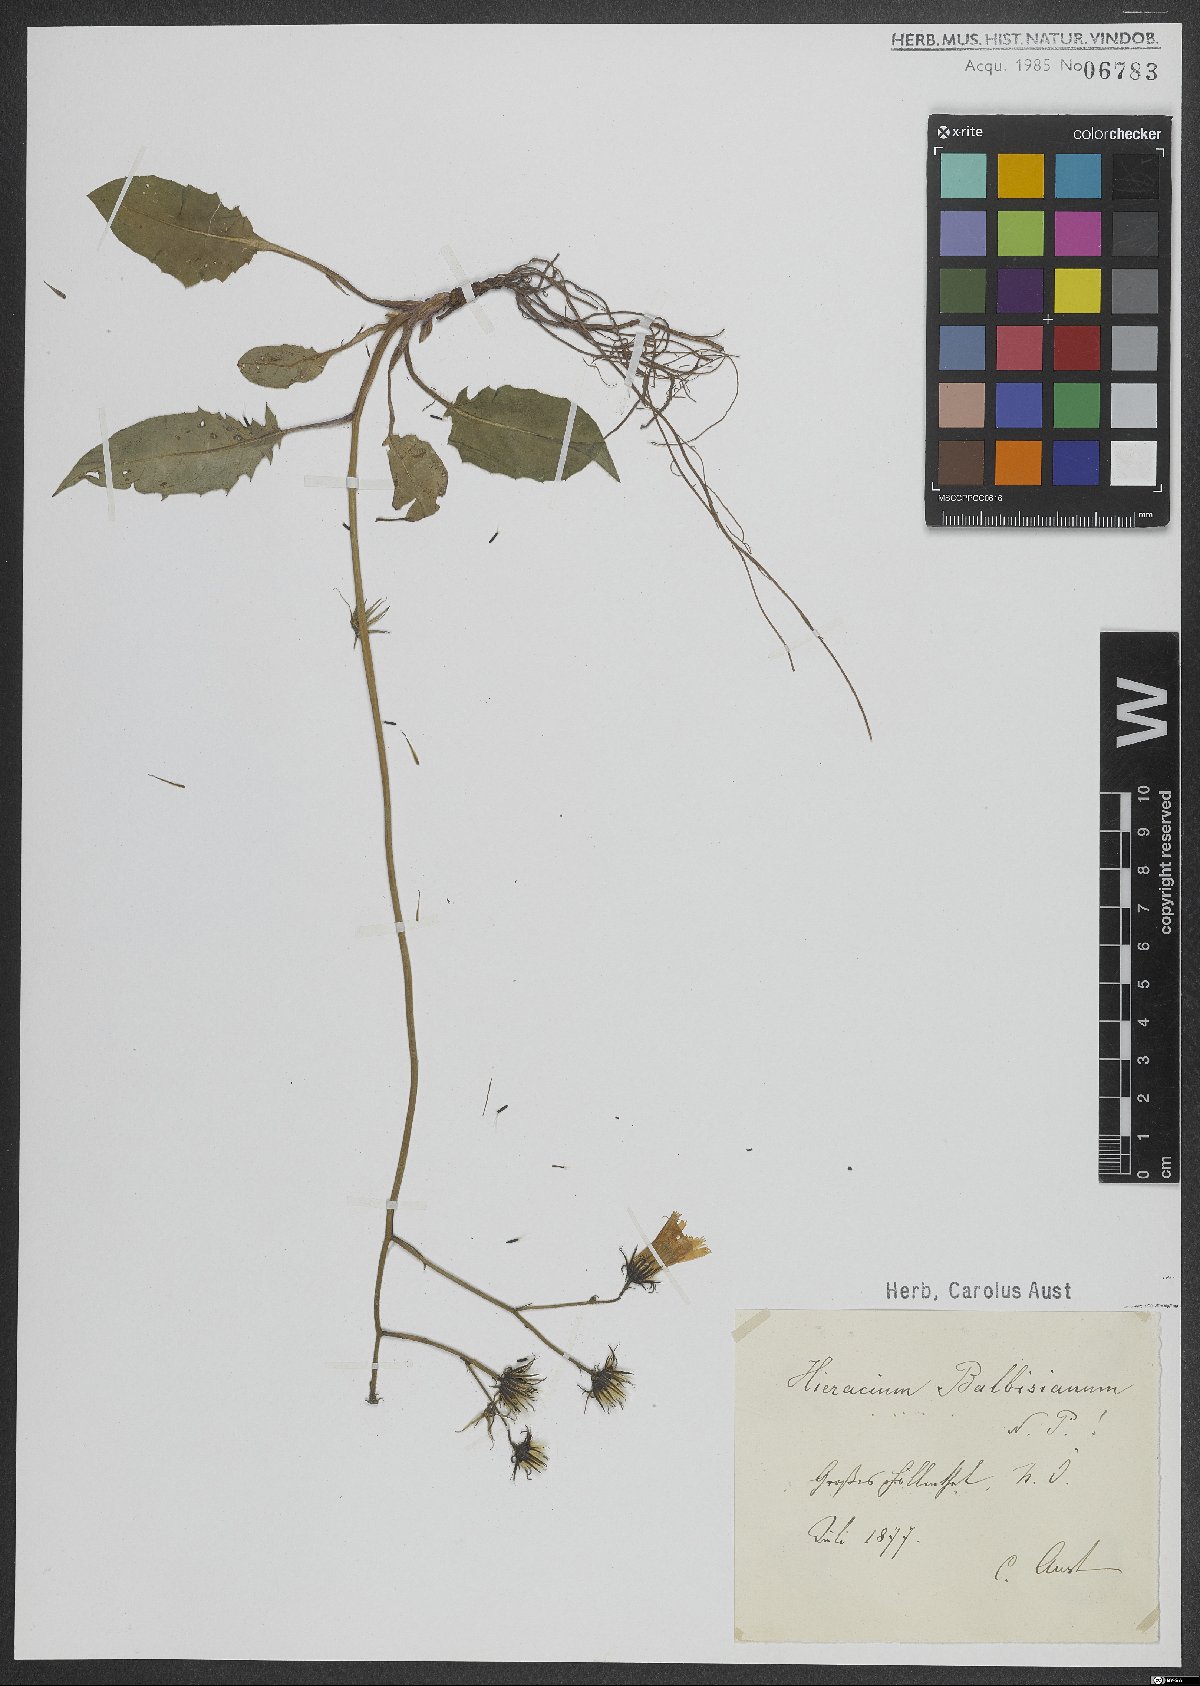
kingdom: Plantae
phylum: Tracheophyta
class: Magnoliopsida
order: Asterales
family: Asteraceae
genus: Hieracium
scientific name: Hieracium balbisianum
